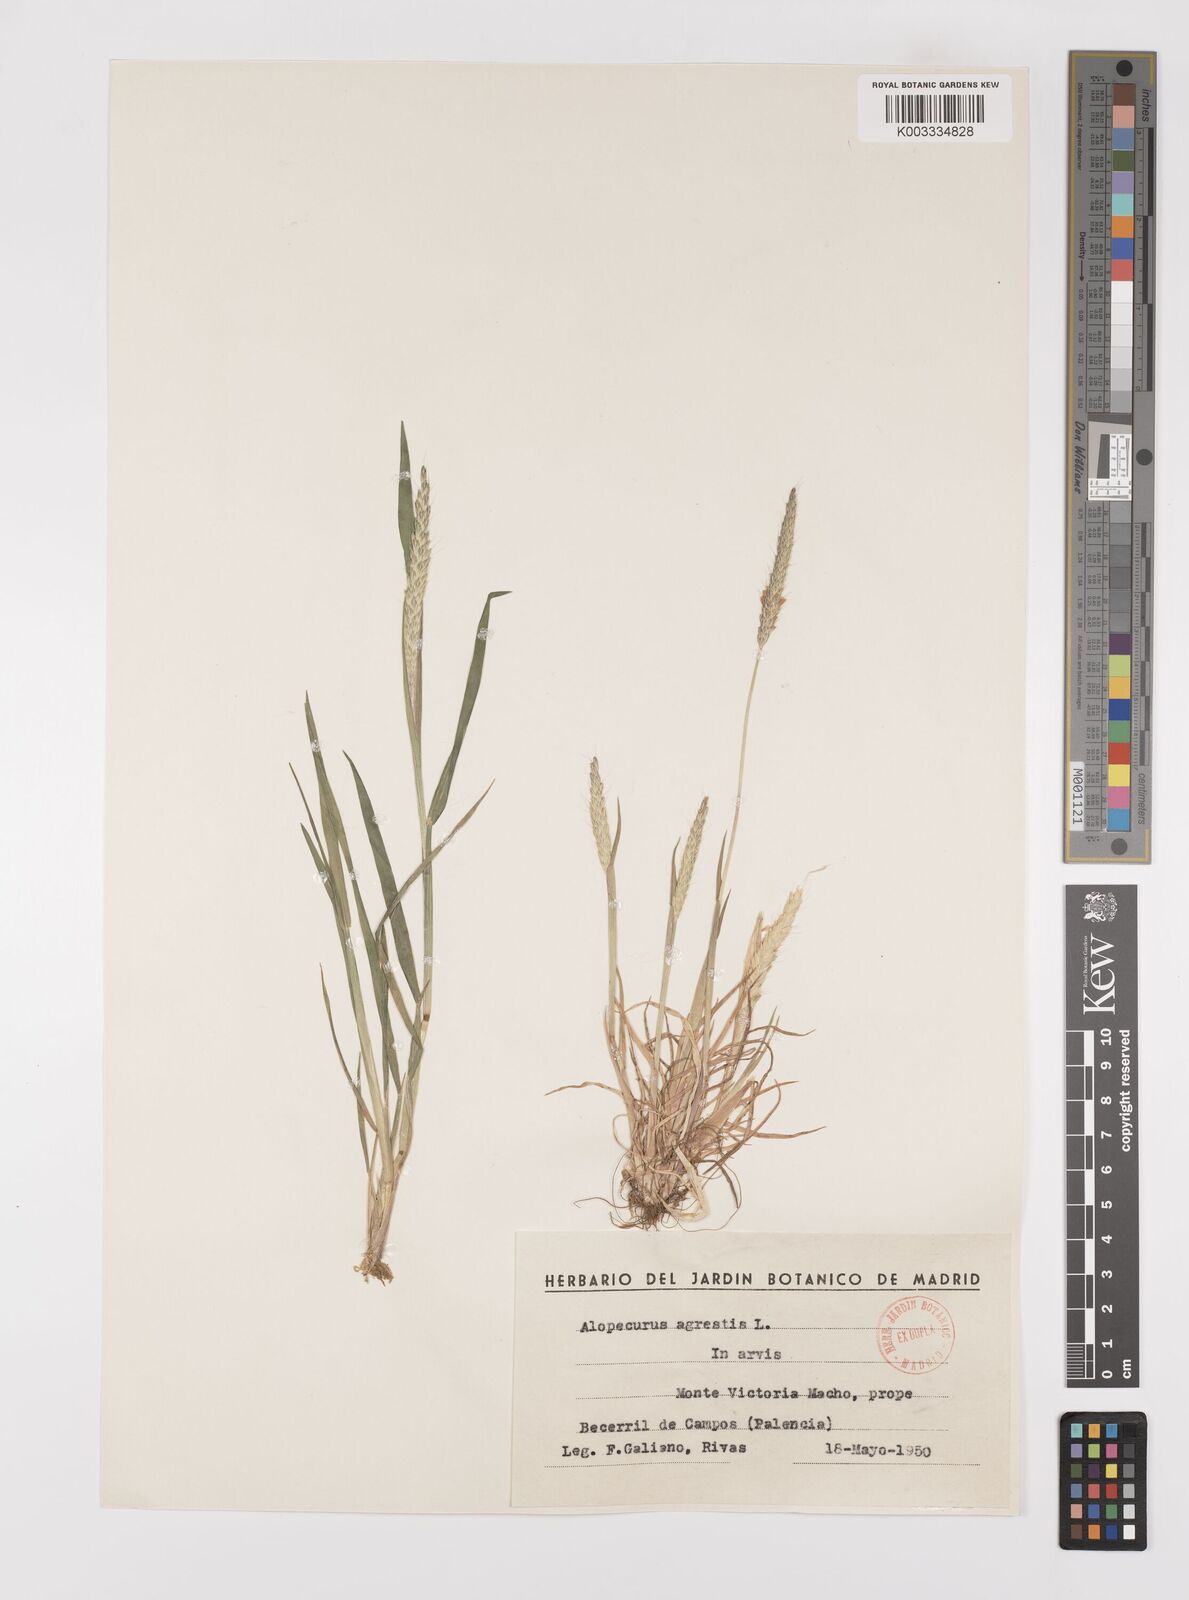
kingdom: Plantae
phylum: Tracheophyta
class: Liliopsida
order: Poales
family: Poaceae
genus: Alopecurus
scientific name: Alopecurus myosuroides
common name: Black-grass
